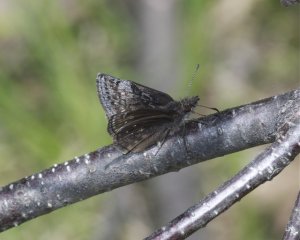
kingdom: Animalia
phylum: Arthropoda
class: Insecta
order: Lepidoptera
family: Hesperiidae
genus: Erynnis
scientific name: Erynnis icelus
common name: Dreamy Duskywing
